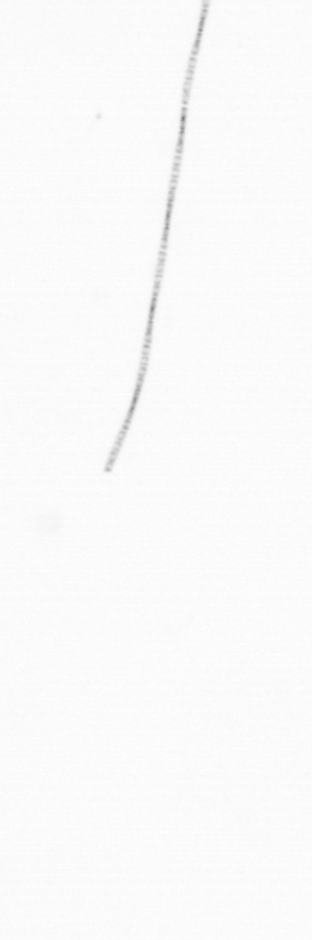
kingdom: Chromista
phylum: Ochrophyta
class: Bacillariophyceae
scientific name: Bacillariophyceae
